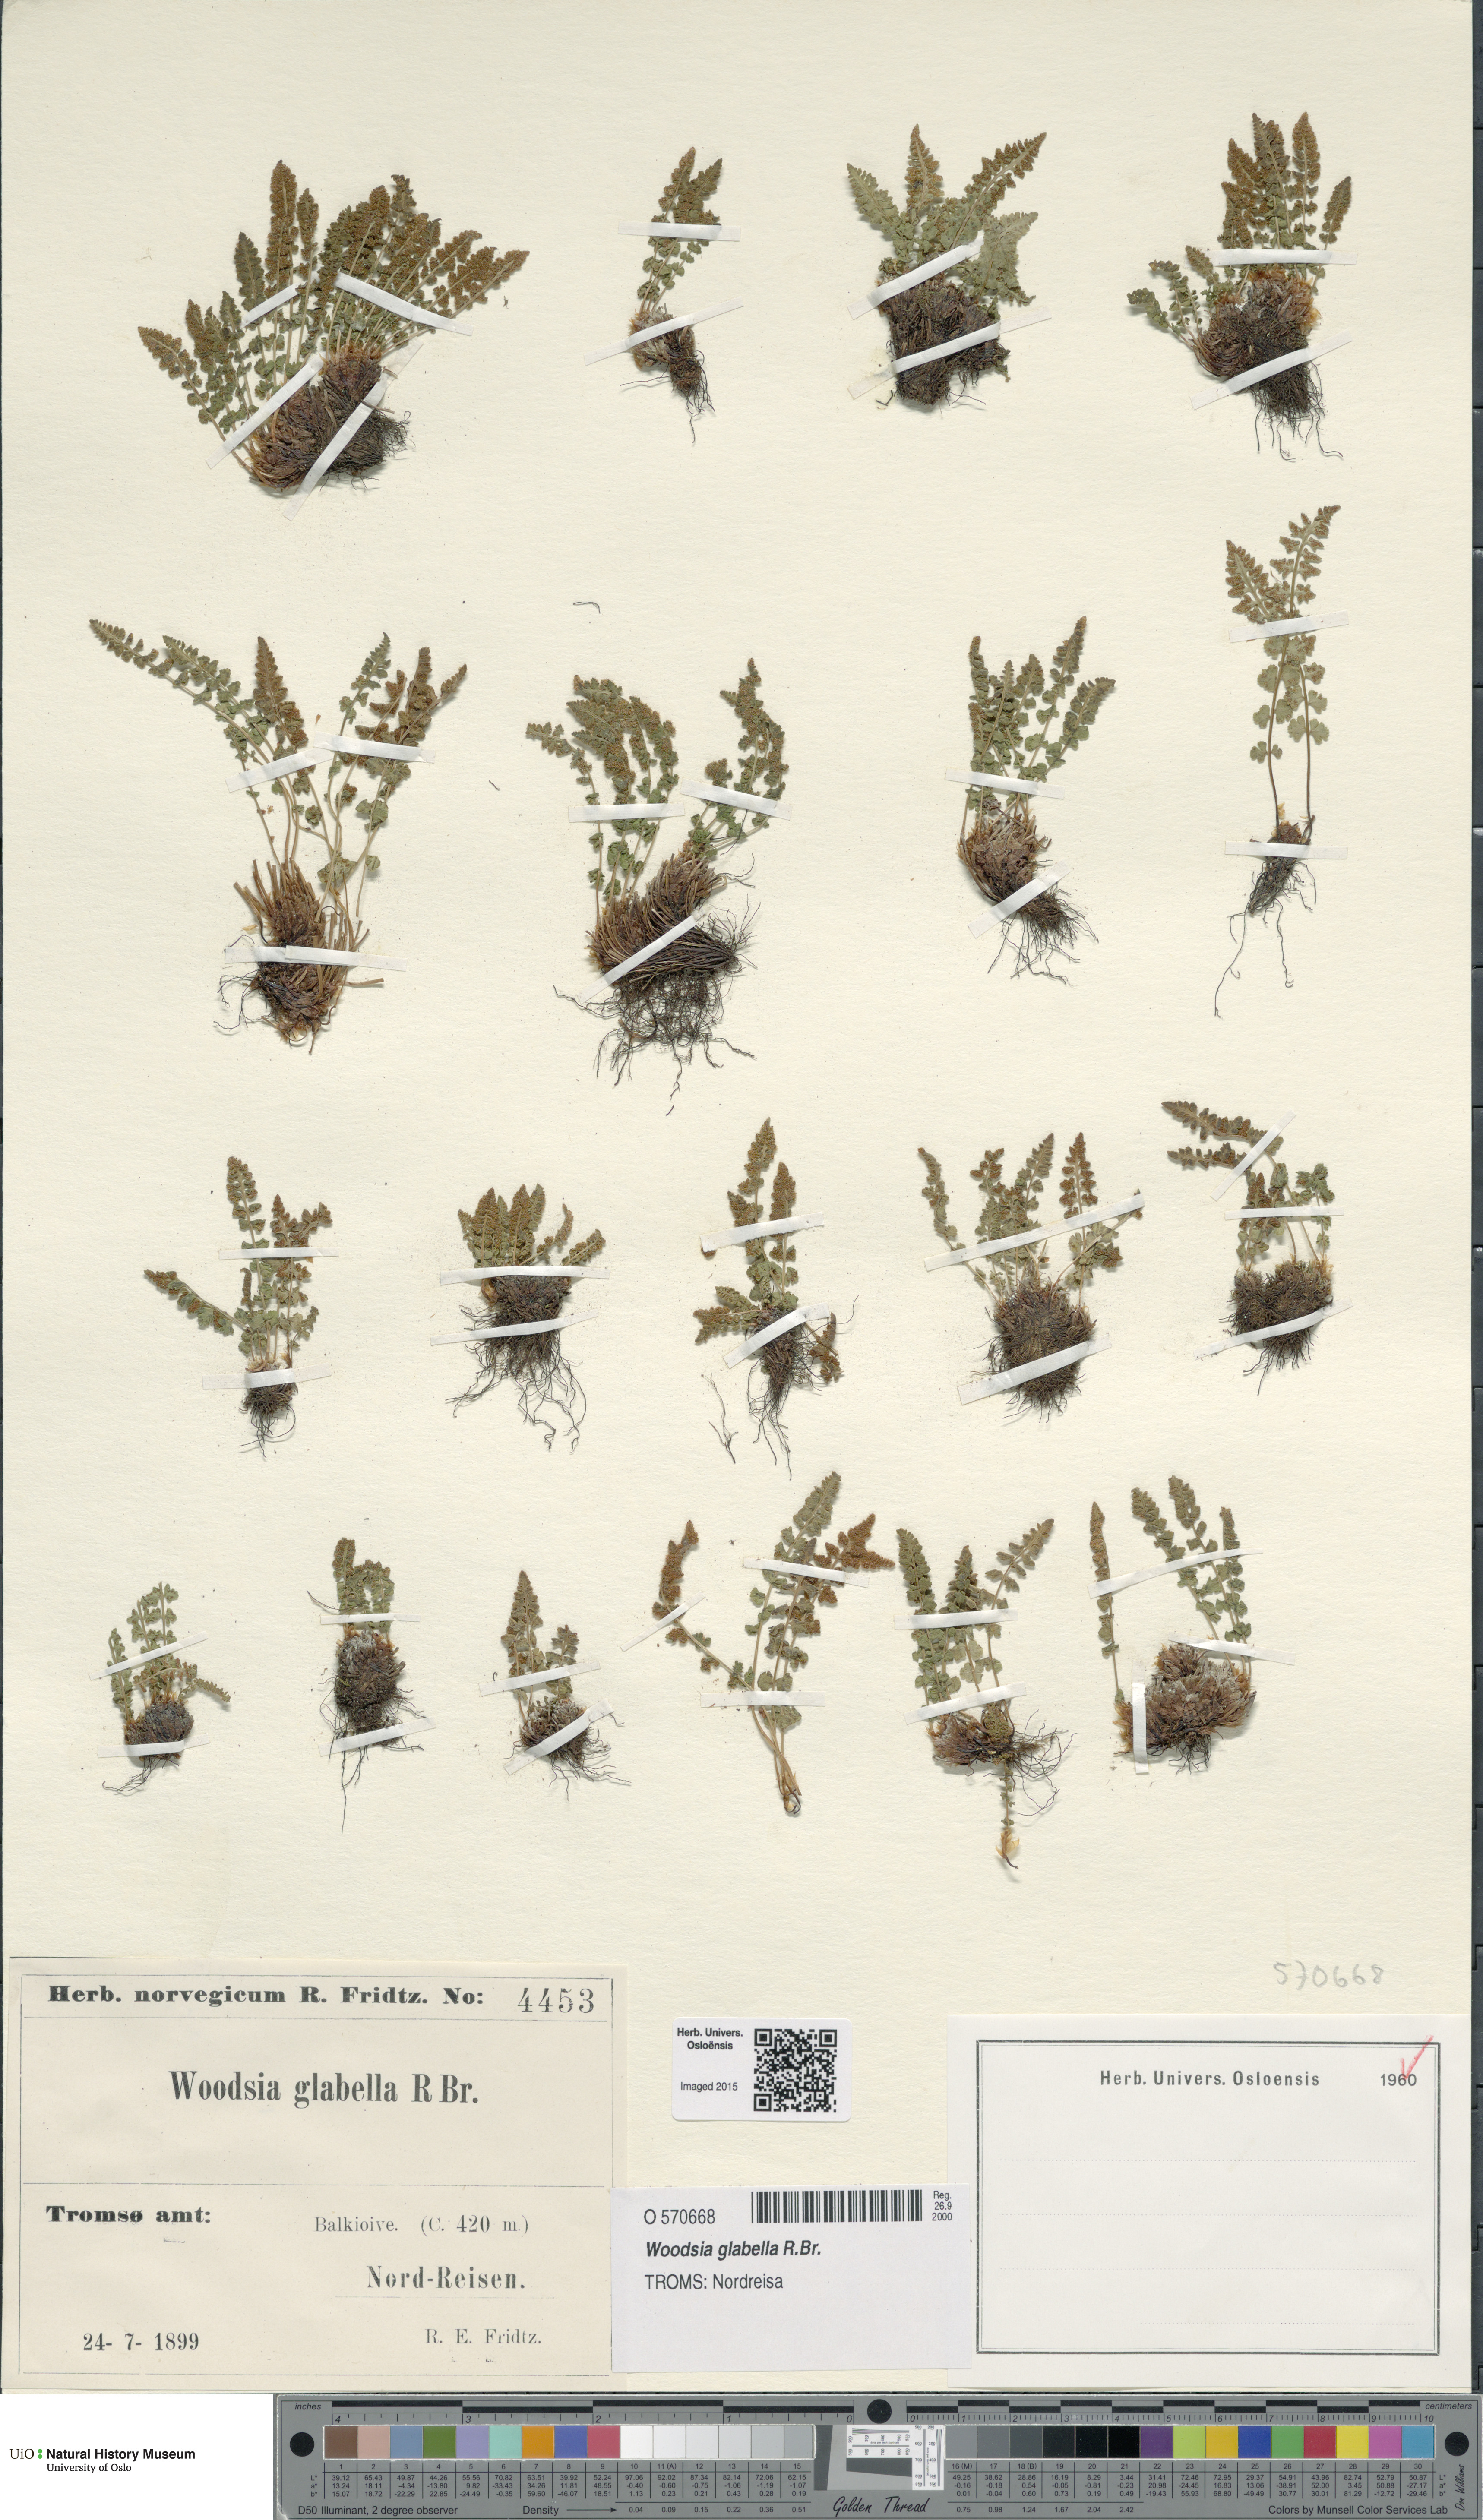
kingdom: Plantae
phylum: Tracheophyta
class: Polypodiopsida
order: Polypodiales
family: Woodsiaceae
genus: Woodsia
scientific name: Woodsia glabella
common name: Smooth woodsia
